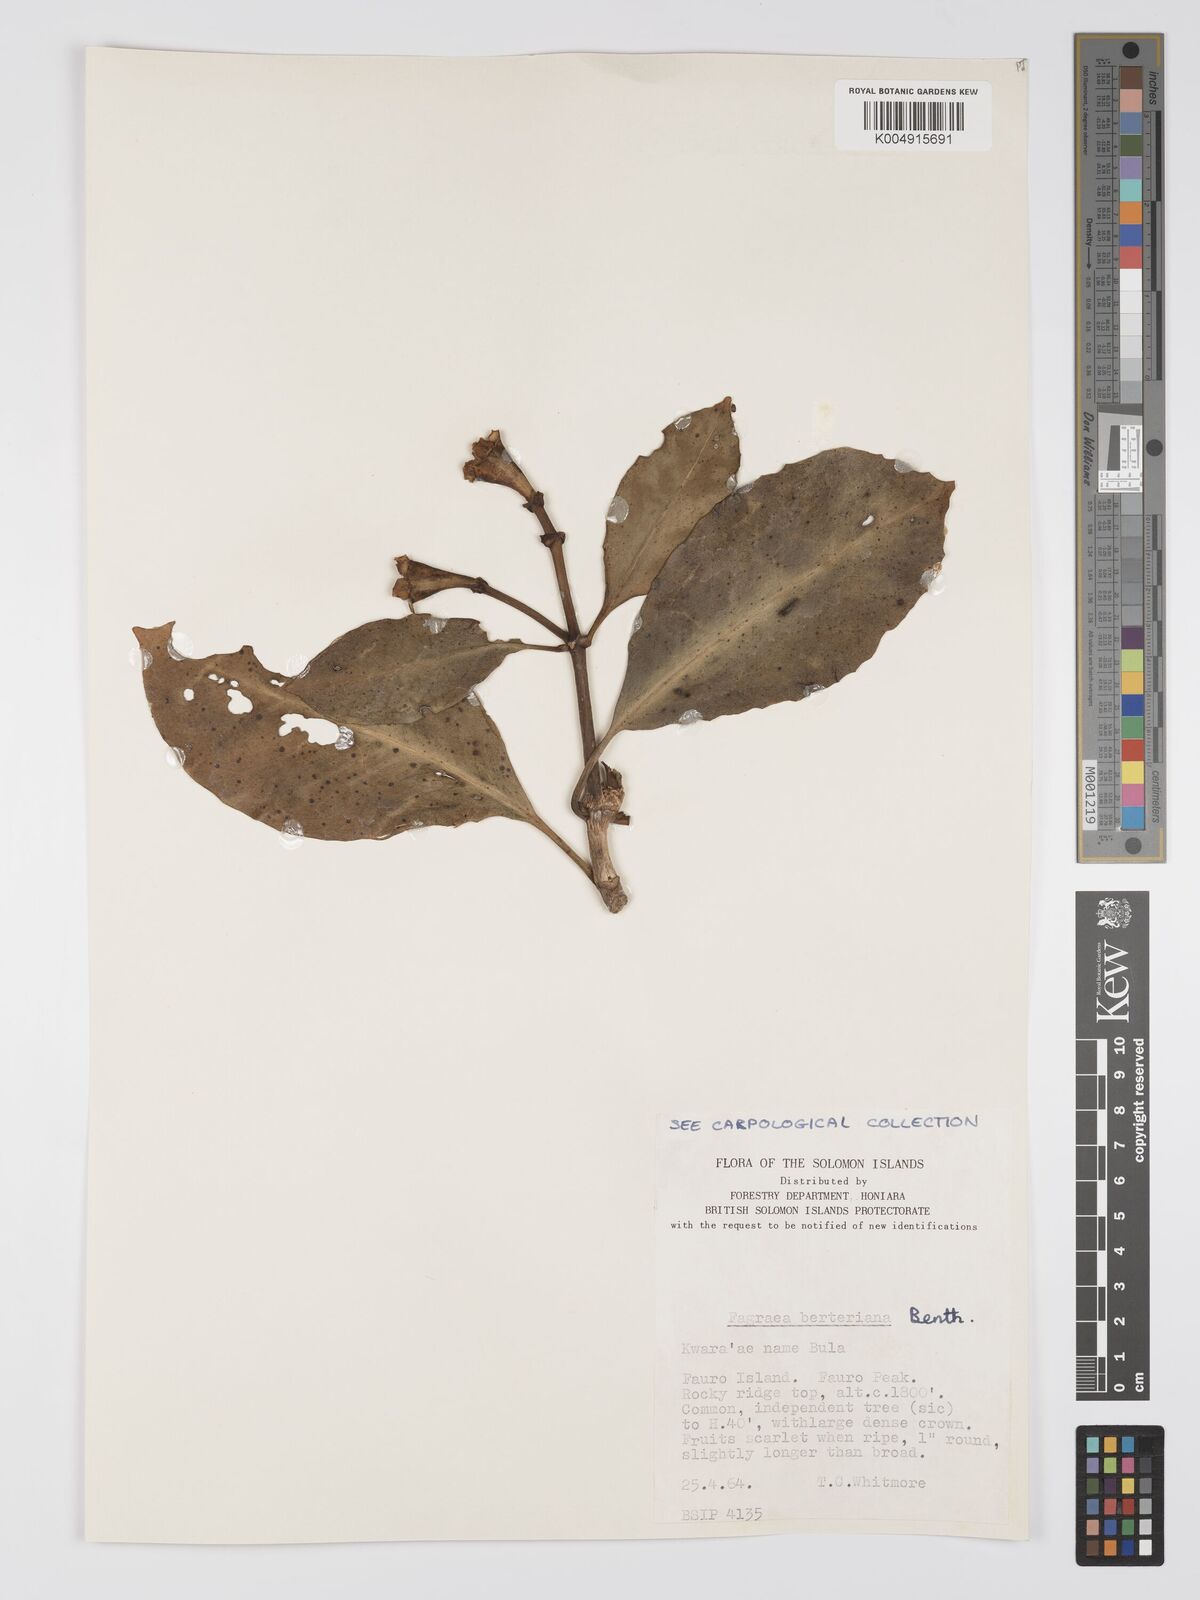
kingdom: Plantae
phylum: Tracheophyta
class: Magnoliopsida
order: Gentianales
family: Gentianaceae
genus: Fagraea
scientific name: Fagraea berteroana
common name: Cape jitta
